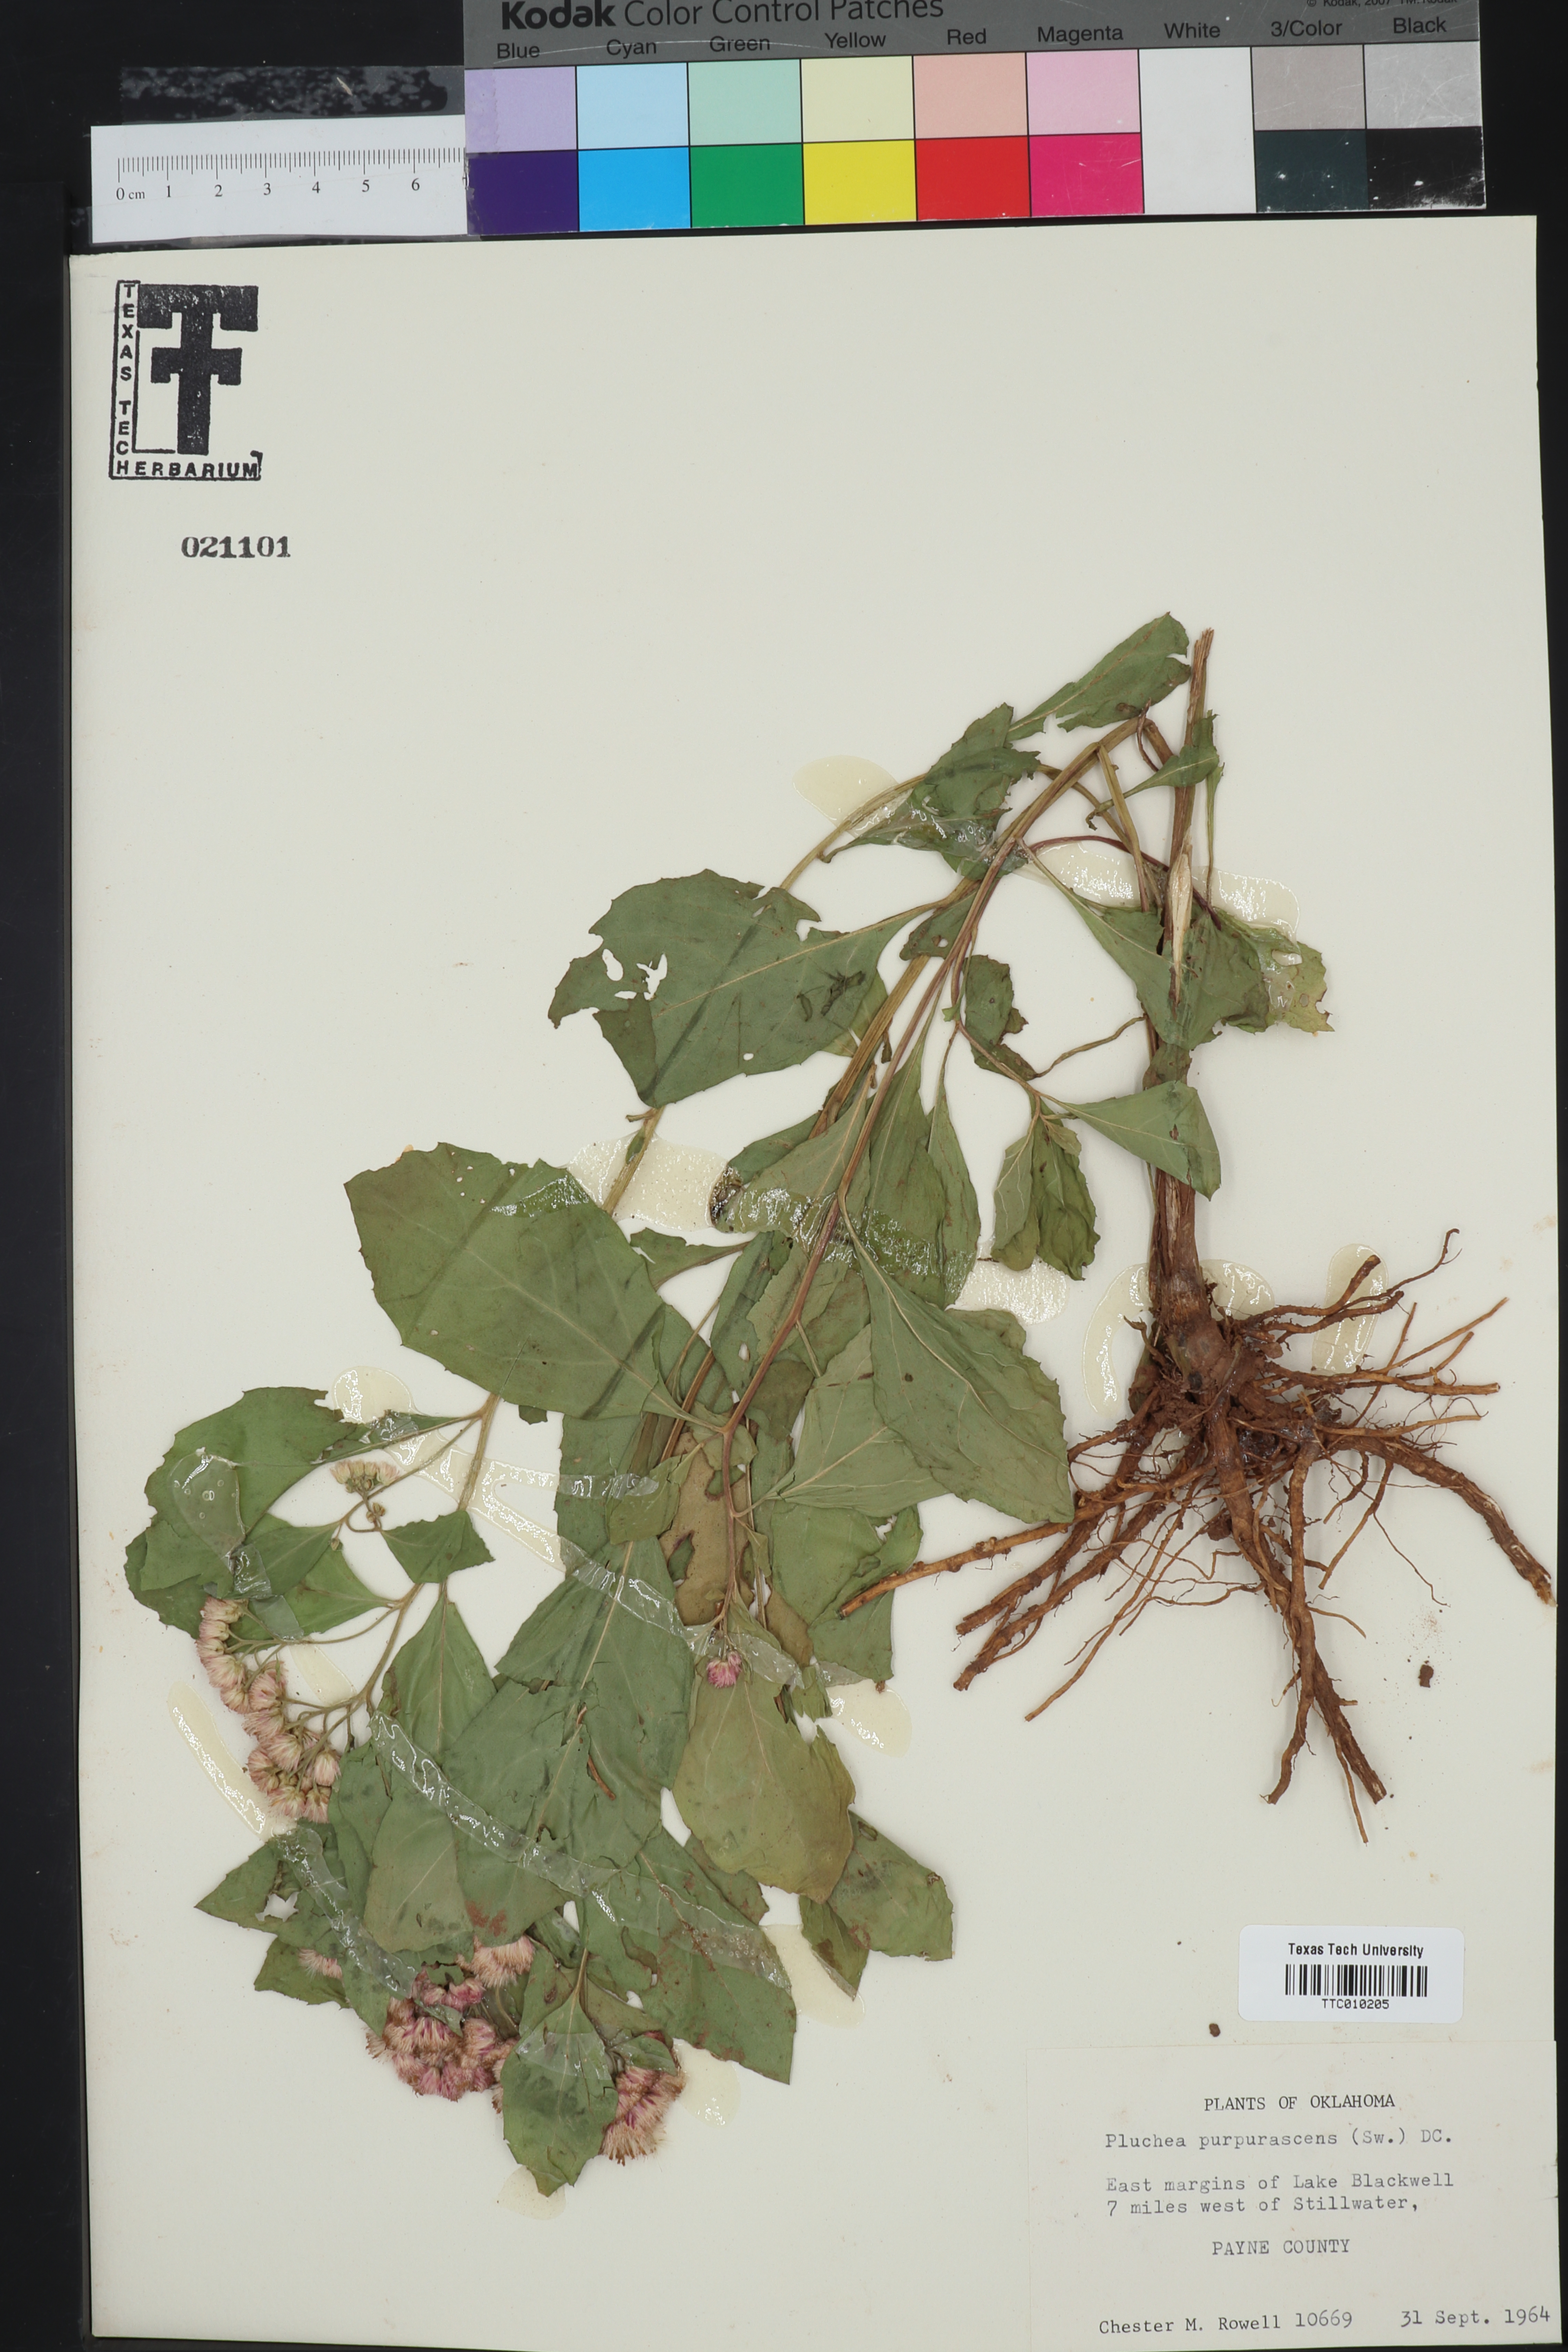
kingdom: Plantae
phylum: Tracheophyta
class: Magnoliopsida
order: Asterales
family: Asteraceae
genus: Pluchea
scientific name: Pluchea odorata
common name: Saltmarsh fleabane
